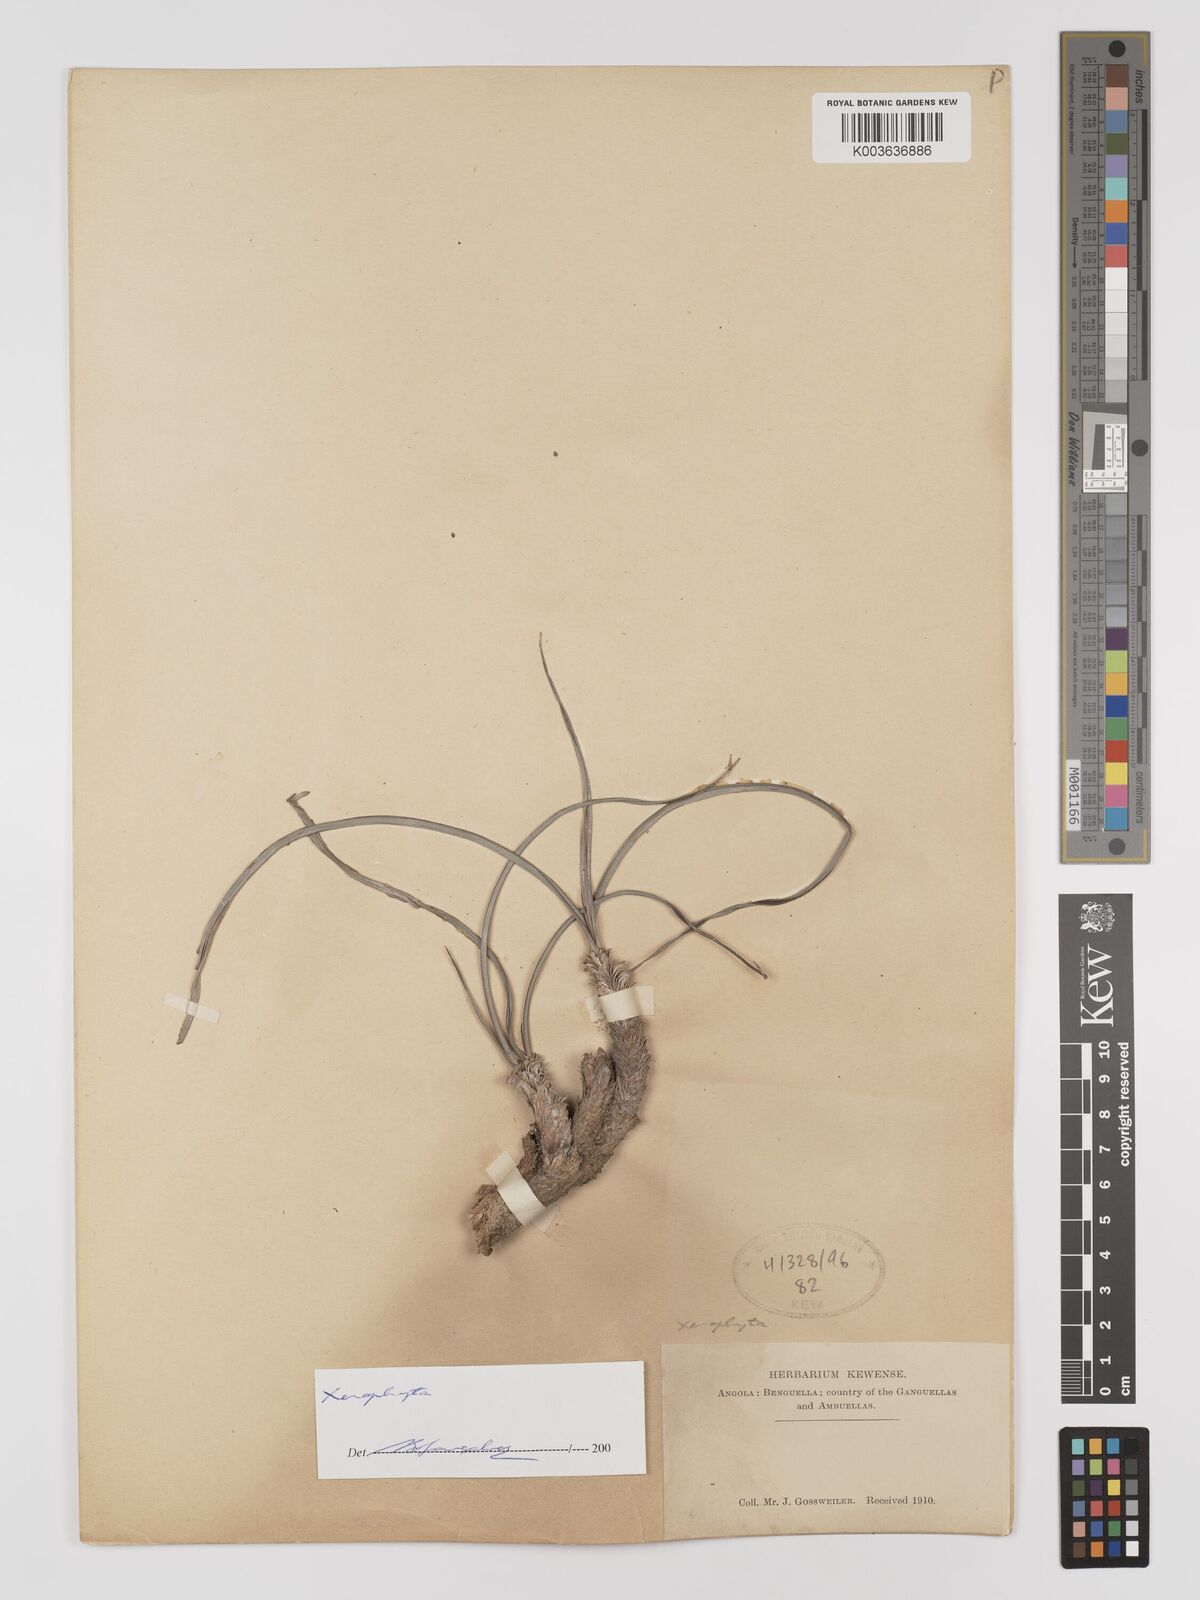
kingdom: Plantae
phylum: Tracheophyta
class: Liliopsida
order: Pandanales
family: Velloziaceae
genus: Xerophyta
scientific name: Xerophyta
